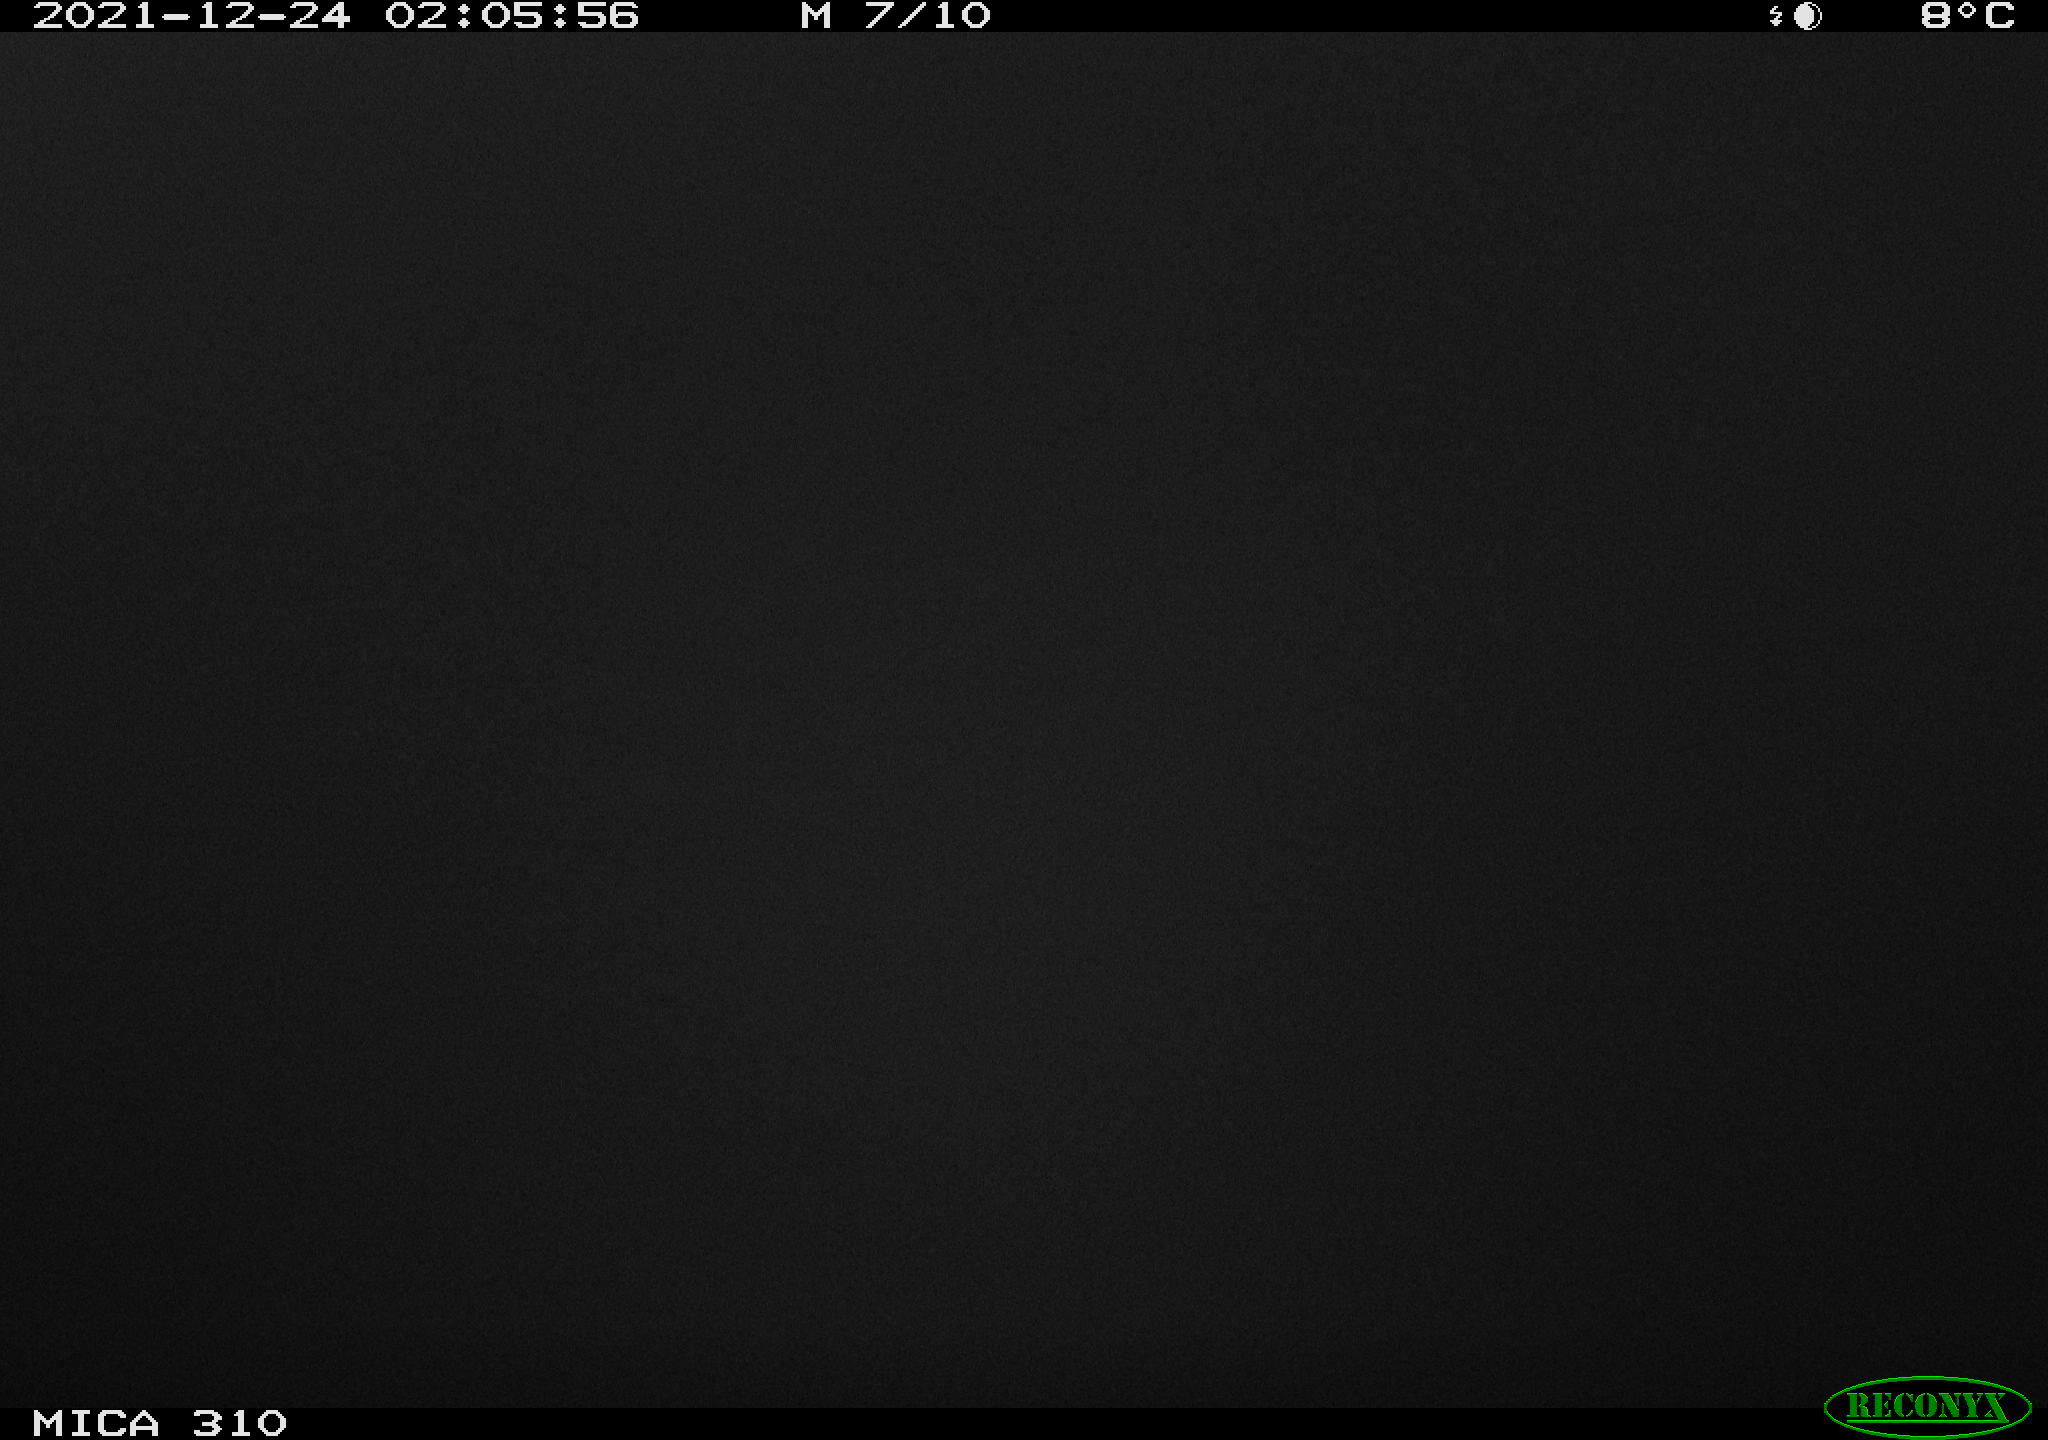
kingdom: Animalia
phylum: Chordata
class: Aves
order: Anseriformes
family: Anatidae
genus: Anas
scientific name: Anas platyrhynchos
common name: Mallard
